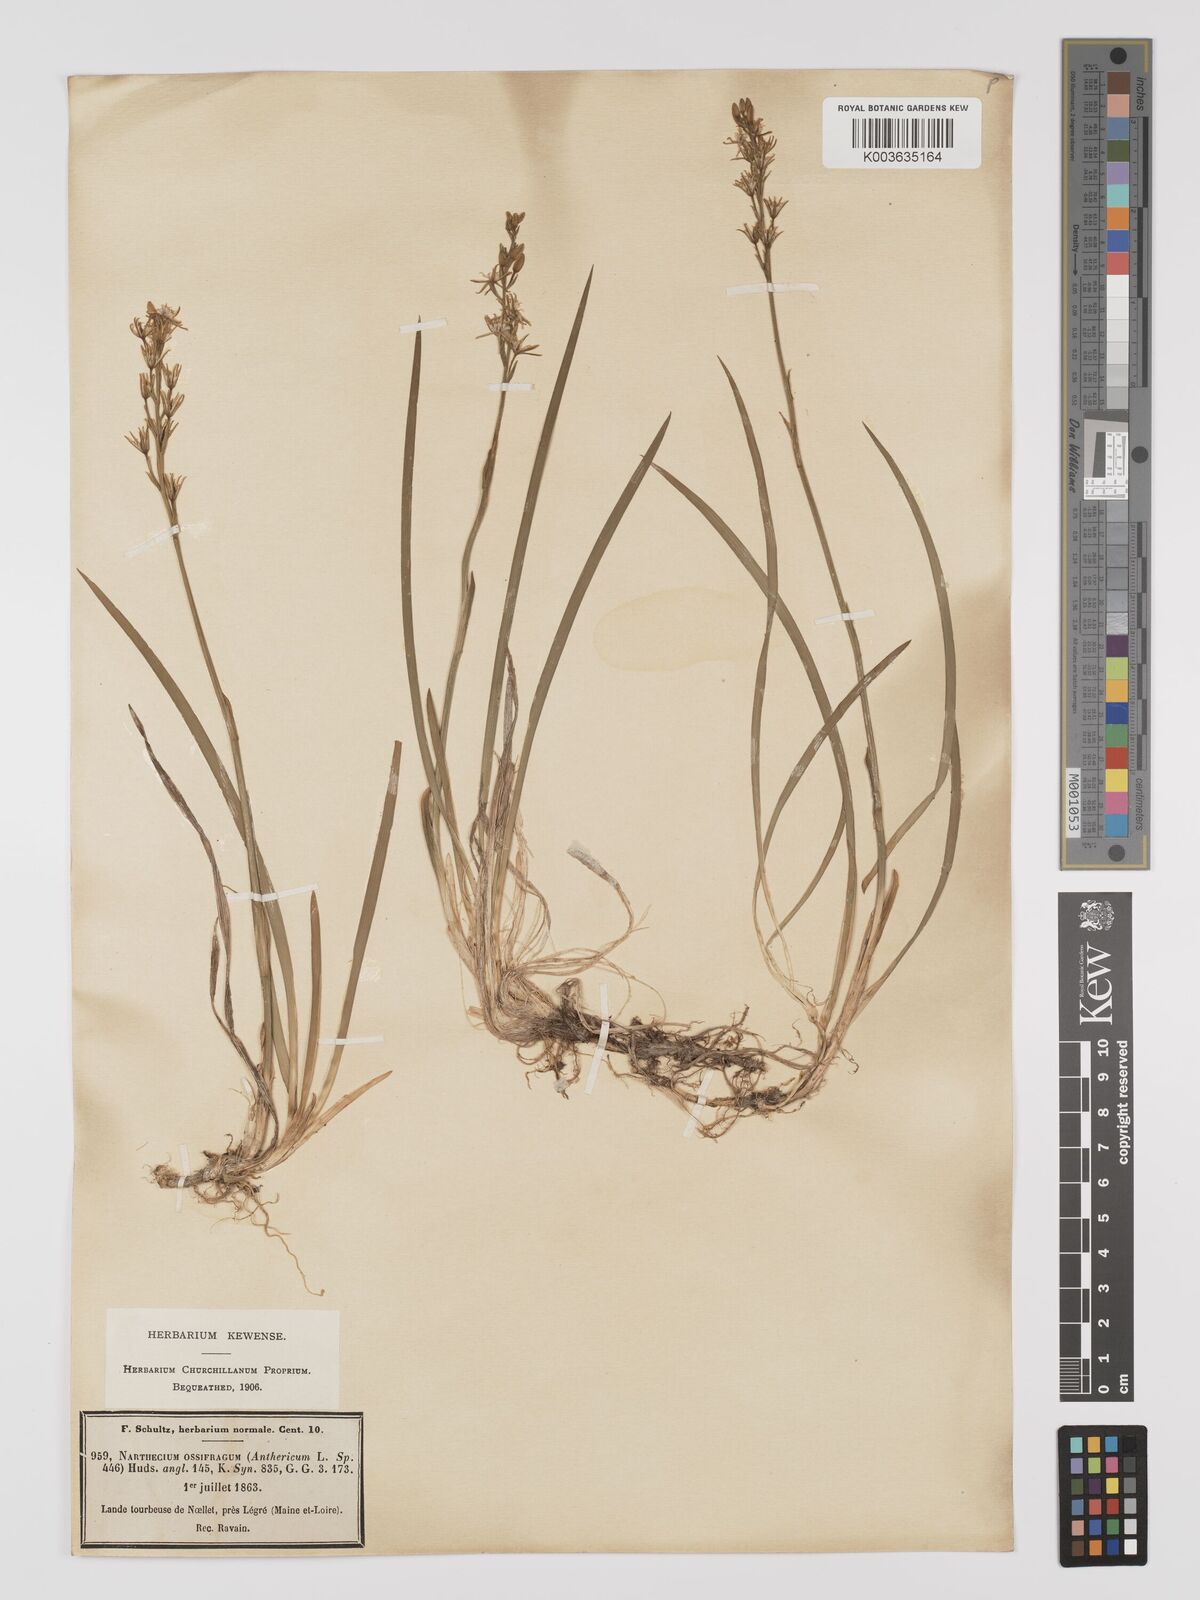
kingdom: Plantae
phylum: Tracheophyta
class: Liliopsida
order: Dioscoreales
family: Nartheciaceae
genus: Narthecium
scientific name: Narthecium ossifragum
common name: Bog asphodel
